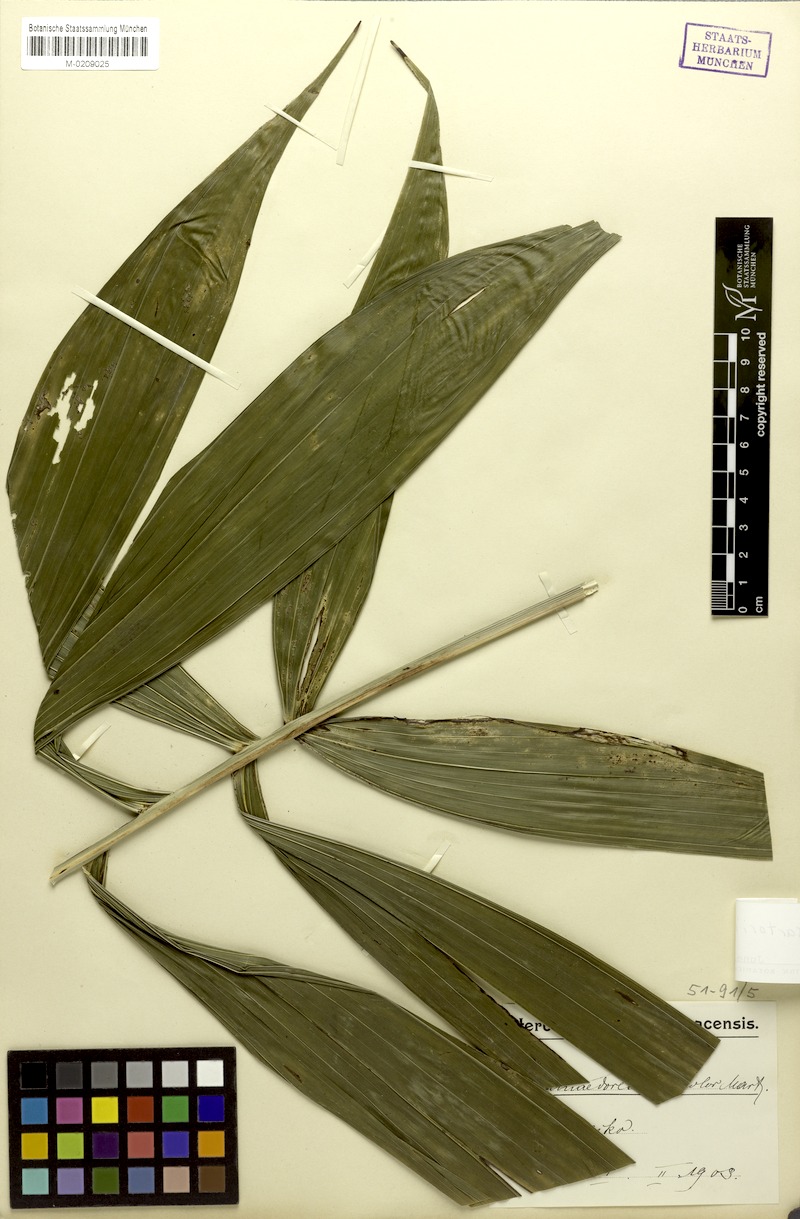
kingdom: Plantae
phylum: Tracheophyta
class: Liliopsida
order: Arecales
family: Arecaceae
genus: Chamaedorea
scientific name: Chamaedorea sartorii
